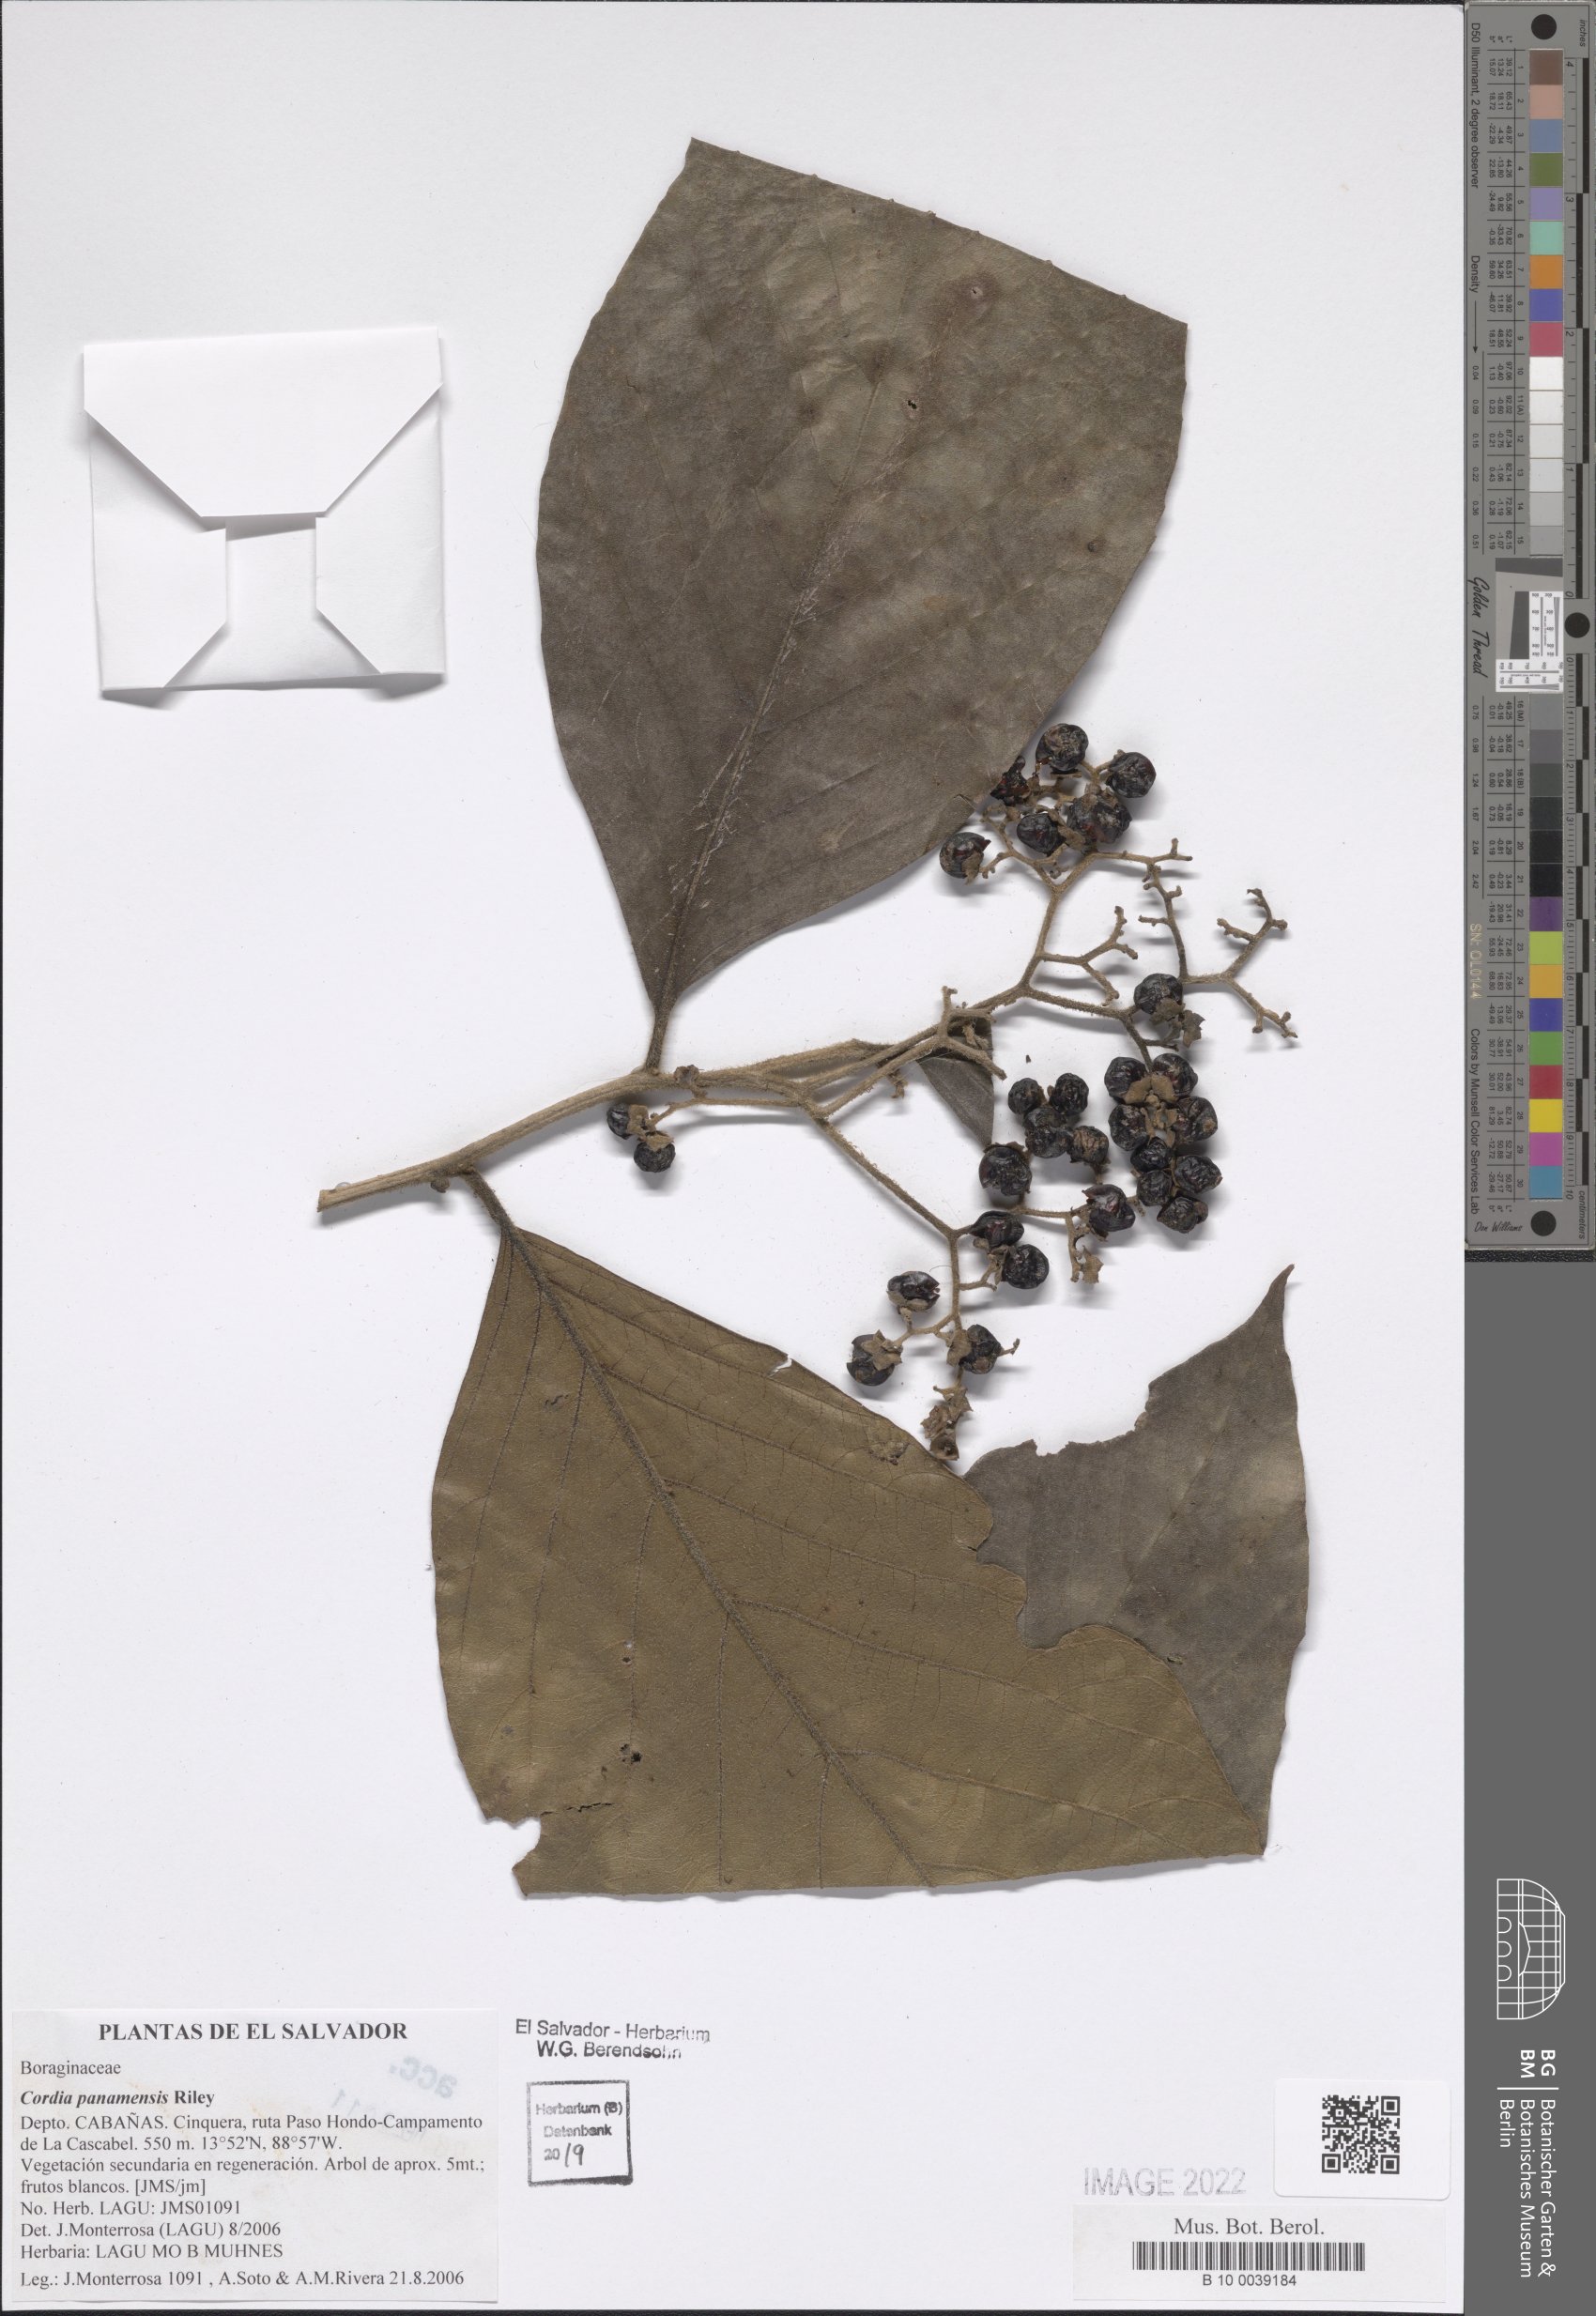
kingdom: Plantae
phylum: Tracheophyta
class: Magnoliopsida
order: Boraginales
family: Cordiaceae
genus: Cordia
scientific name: Cordia panamensis
